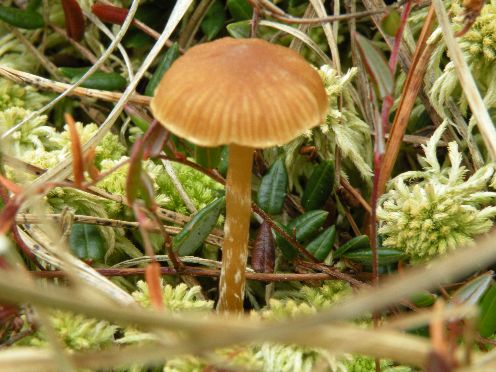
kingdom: Fungi
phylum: Basidiomycota
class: Agaricomycetes
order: Agaricales
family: Hymenogastraceae
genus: Galerina
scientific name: Galerina paludosa
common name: mose-hjelmhat
